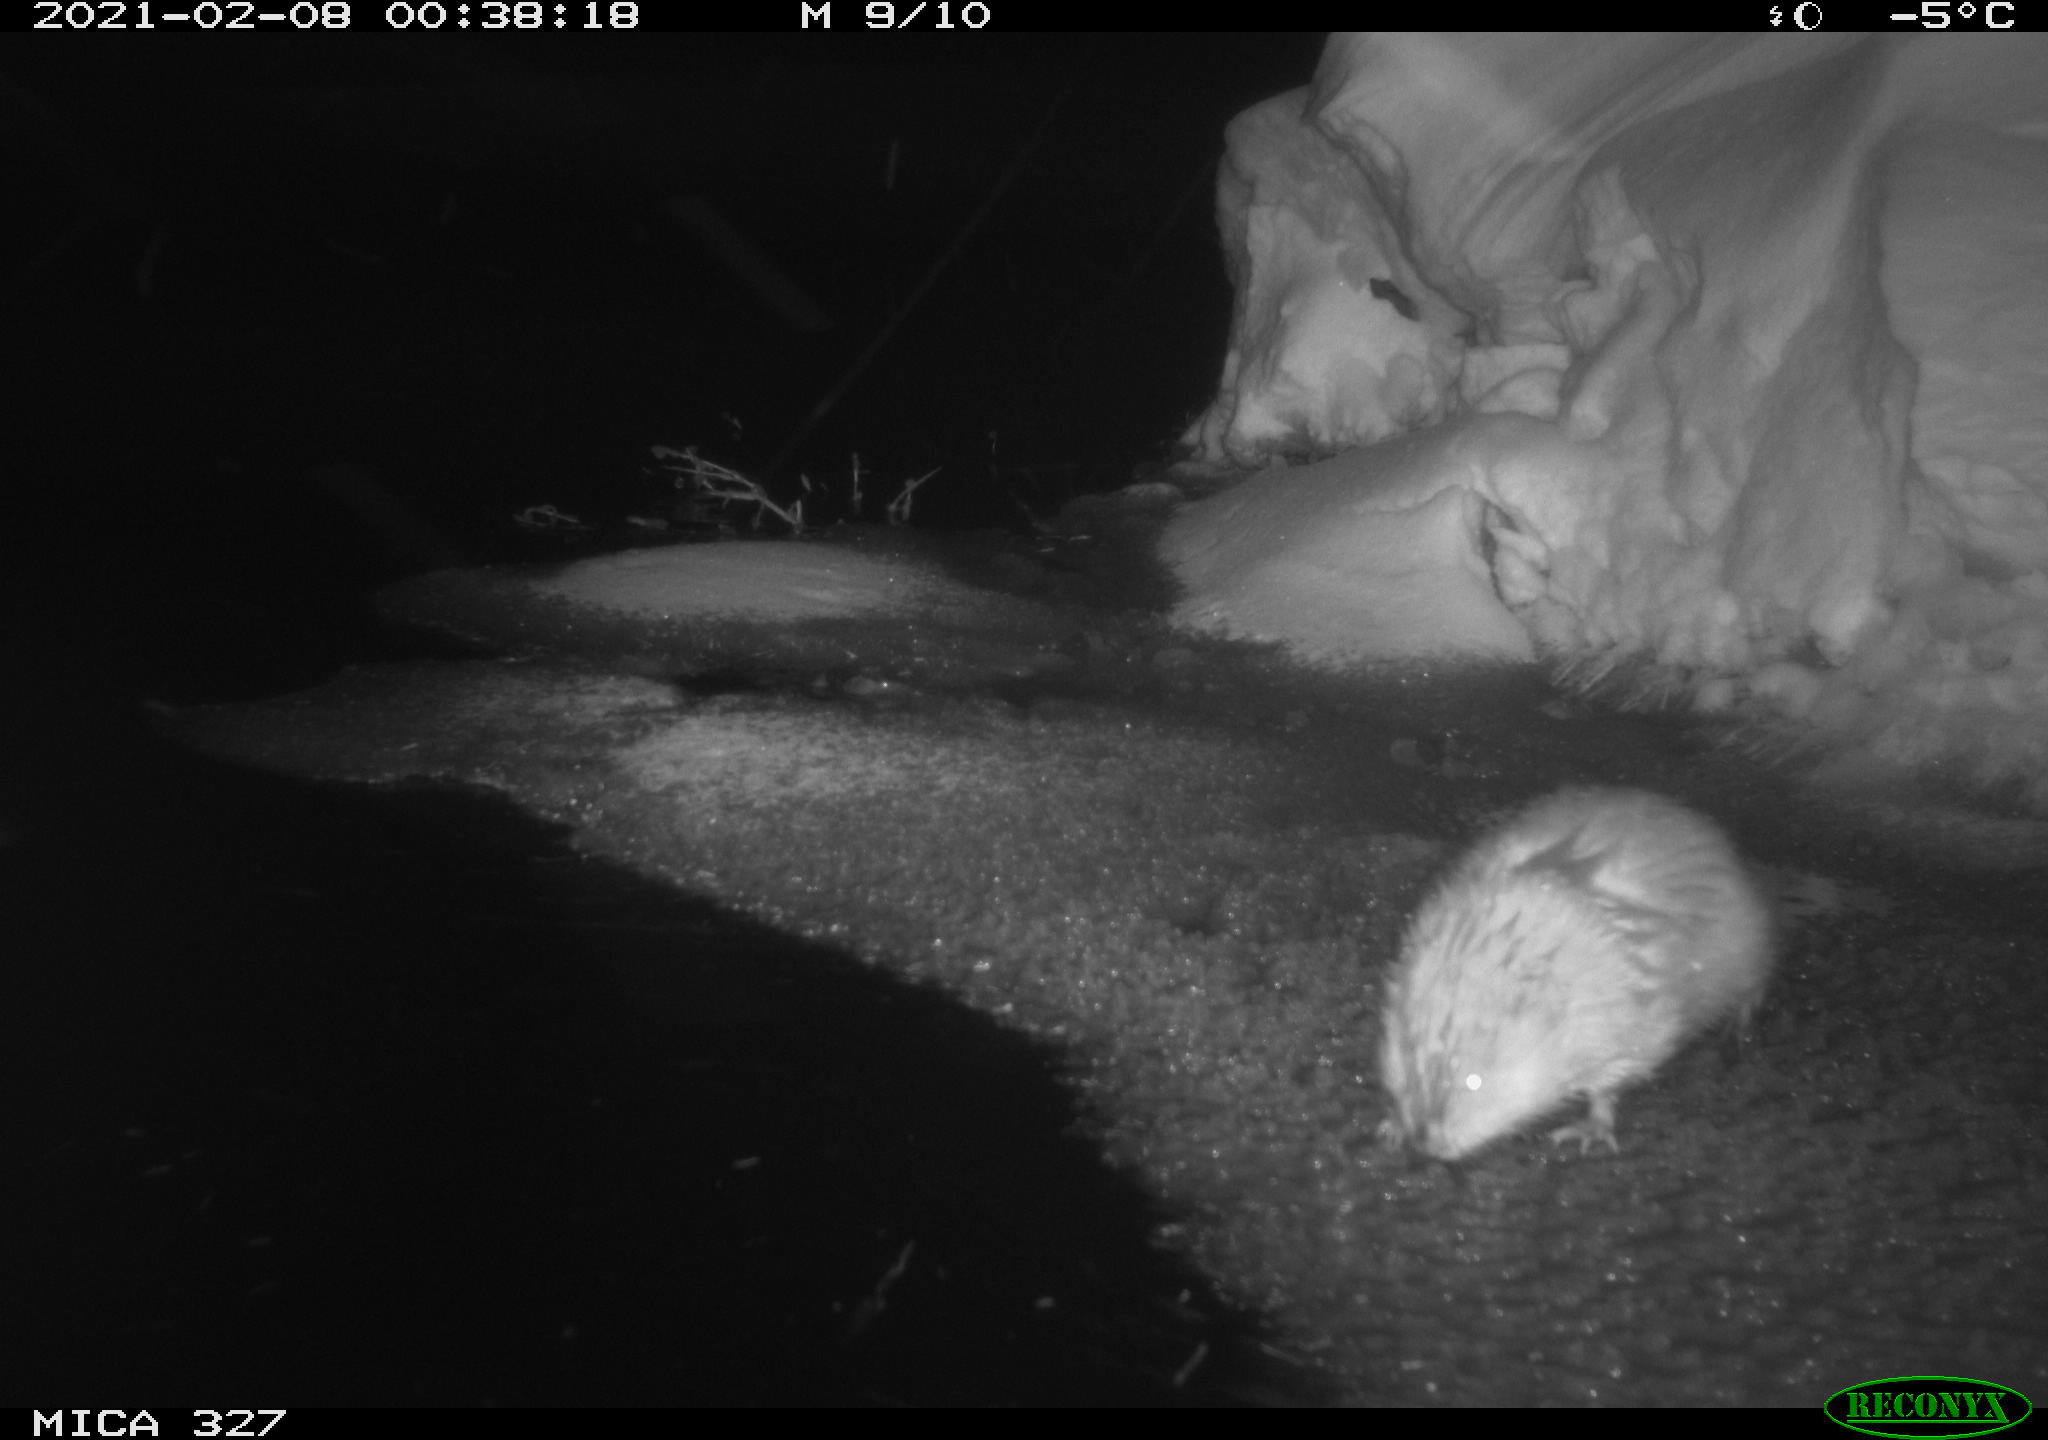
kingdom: Animalia
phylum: Chordata
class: Mammalia
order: Rodentia
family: Cricetidae
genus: Ondatra
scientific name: Ondatra zibethicus
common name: Muskrat
